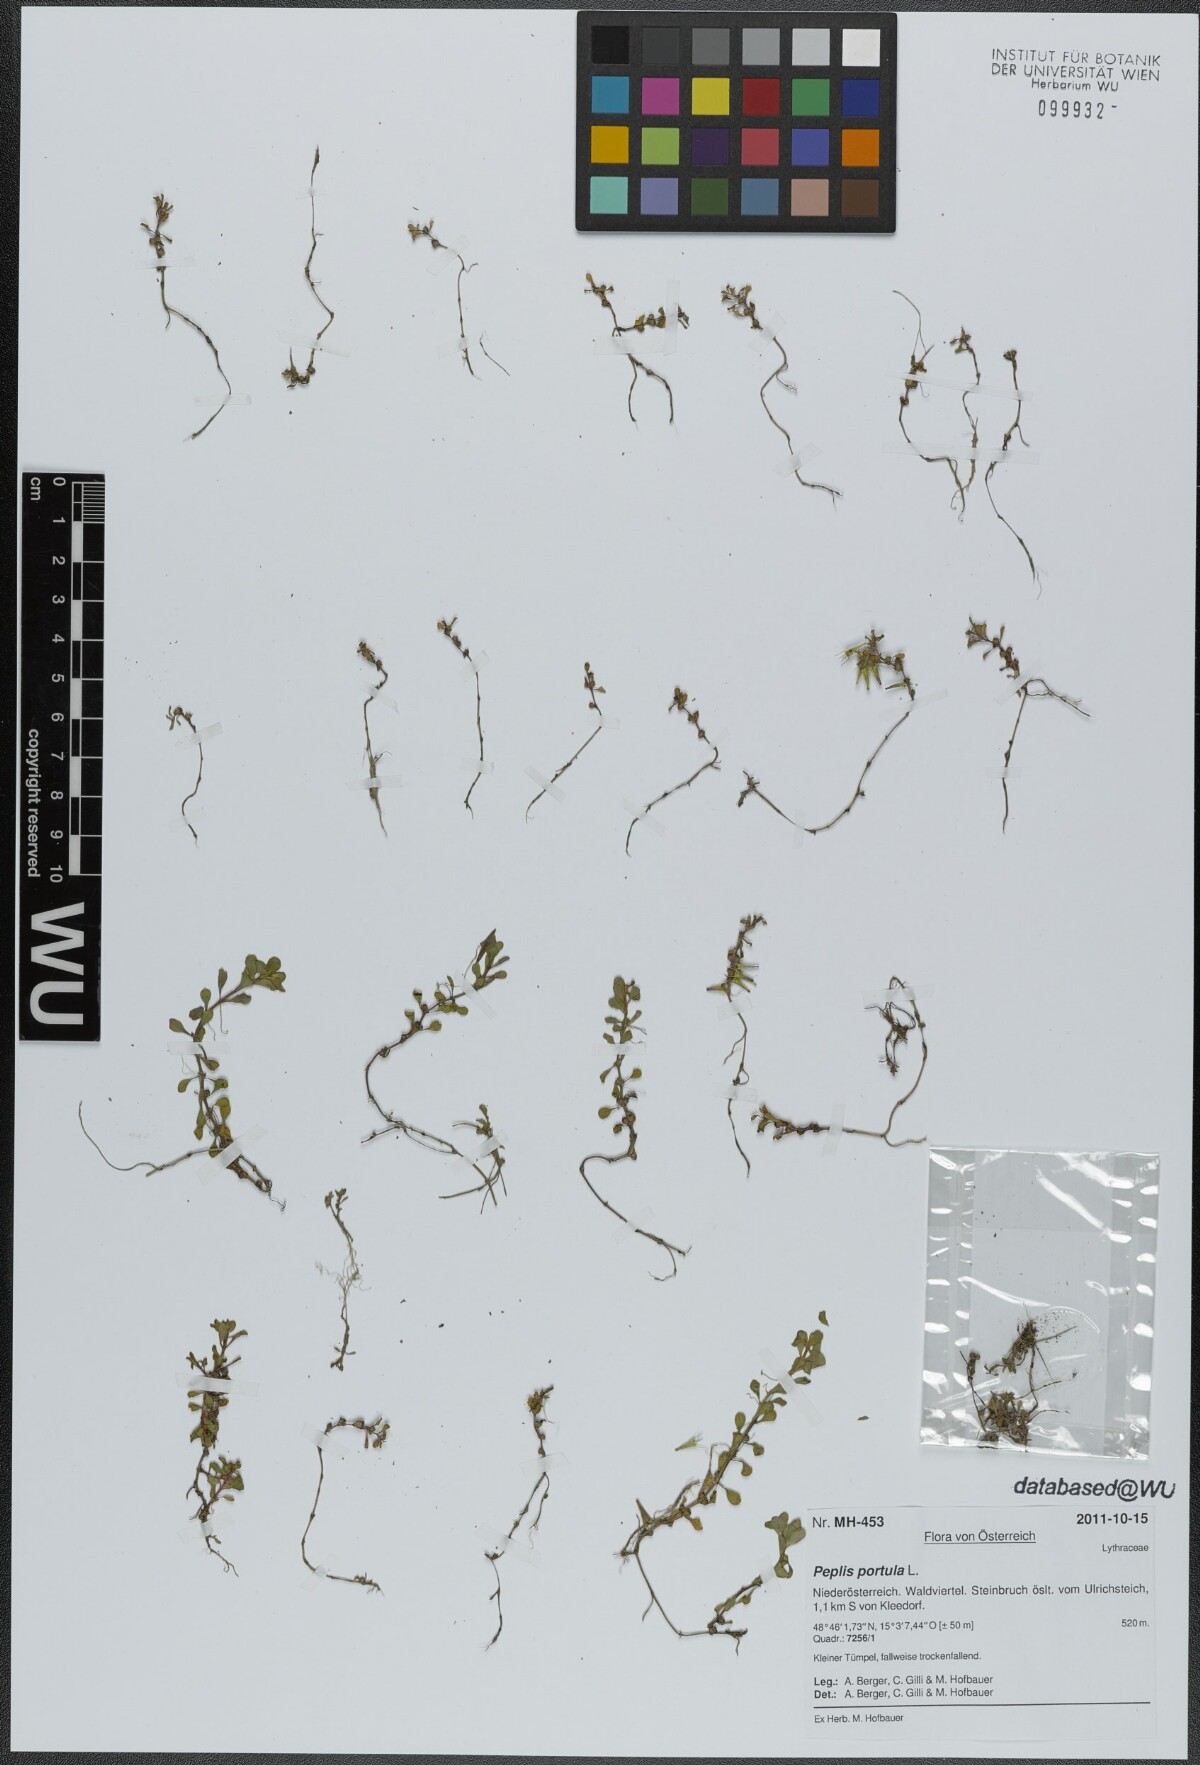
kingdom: Plantae
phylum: Tracheophyta
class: Magnoliopsida
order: Myrtales
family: Lythraceae
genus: Lythrum
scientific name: Lythrum portula
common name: Water purslane
